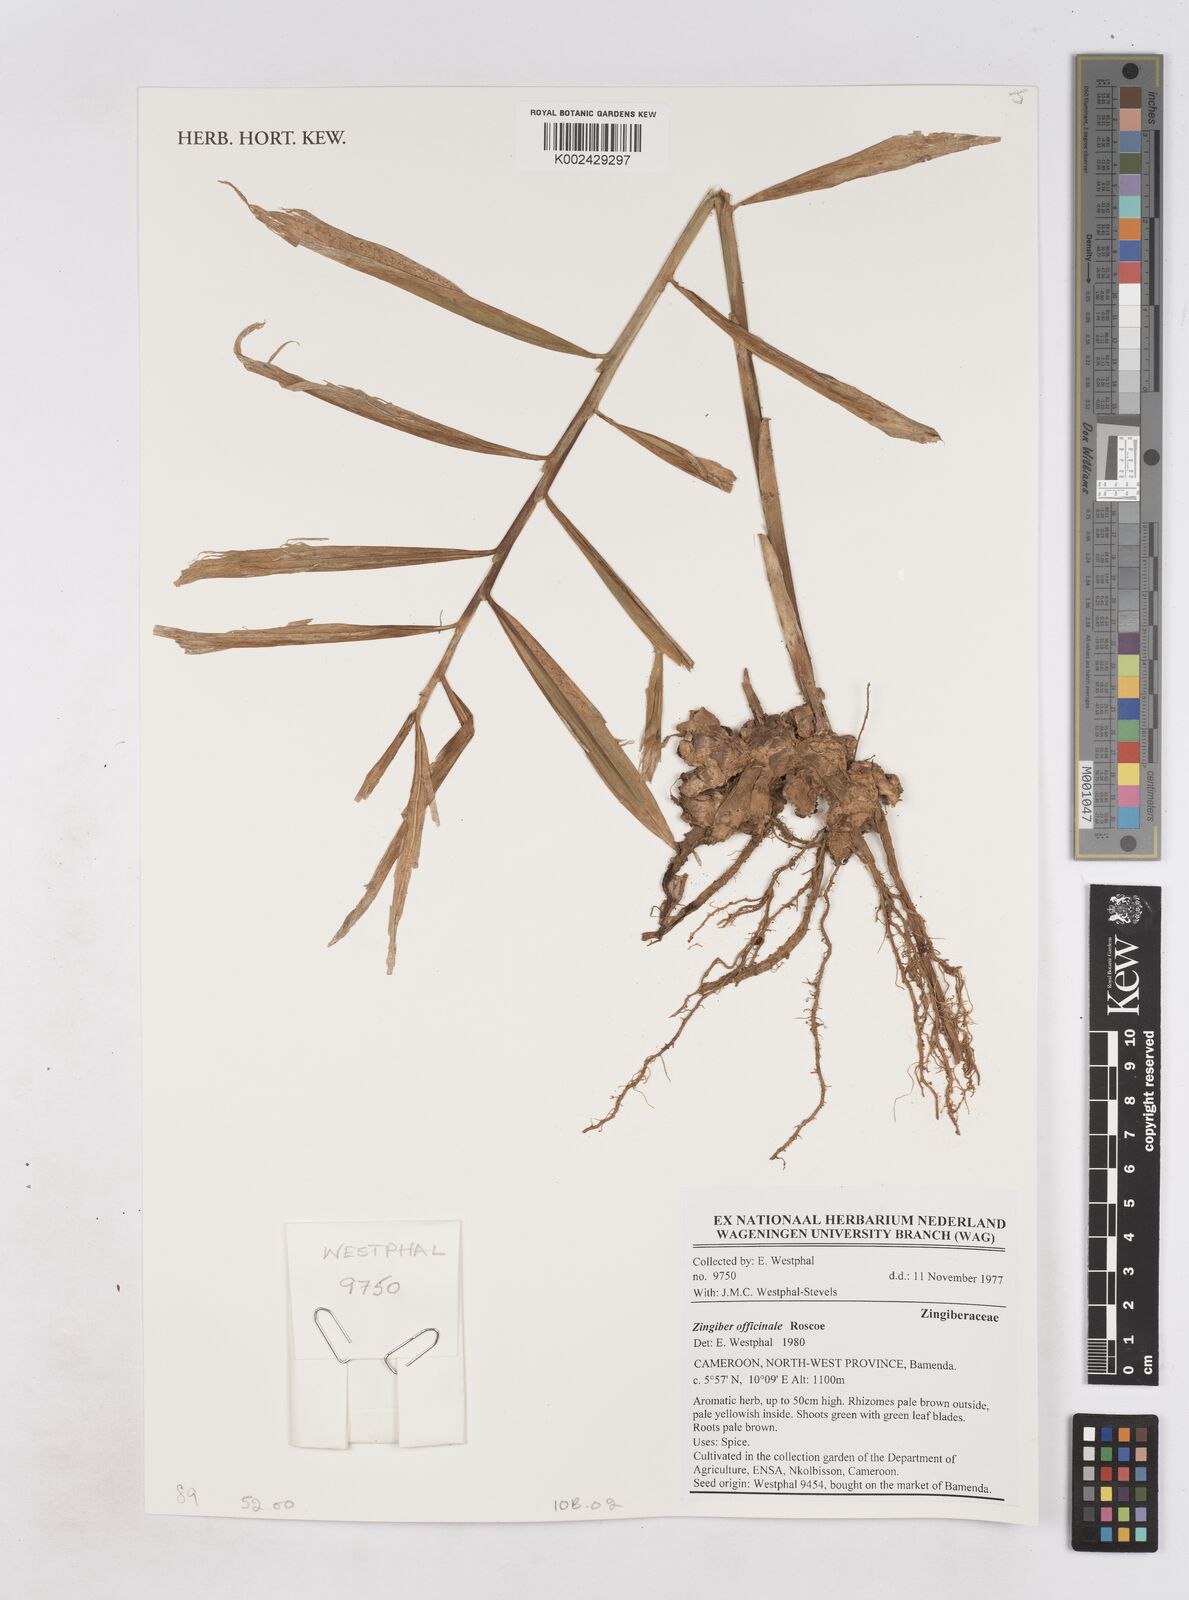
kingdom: Plantae
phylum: Tracheophyta
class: Liliopsida
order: Zingiberales
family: Zingiberaceae
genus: Zingiber
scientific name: Zingiber officinale
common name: Ginger
